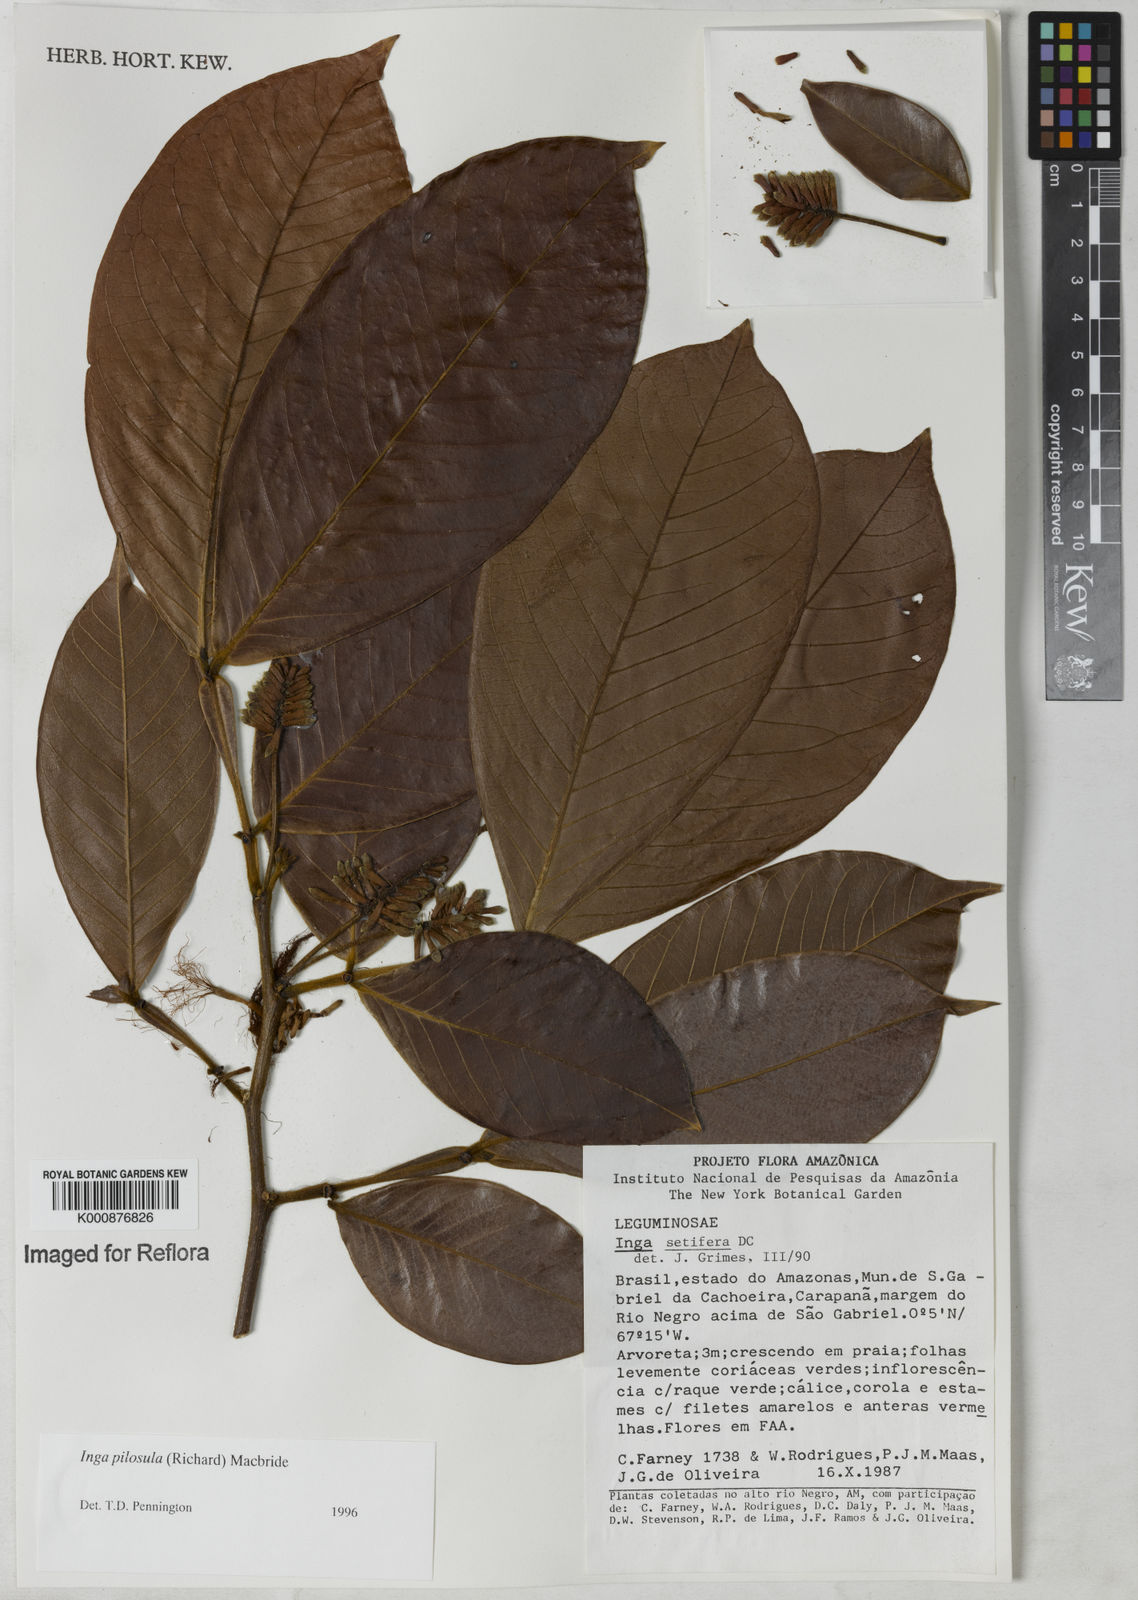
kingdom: Plantae
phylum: Tracheophyta
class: Magnoliopsida
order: Fabales
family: Fabaceae
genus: Inga
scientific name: Inga pilosula
